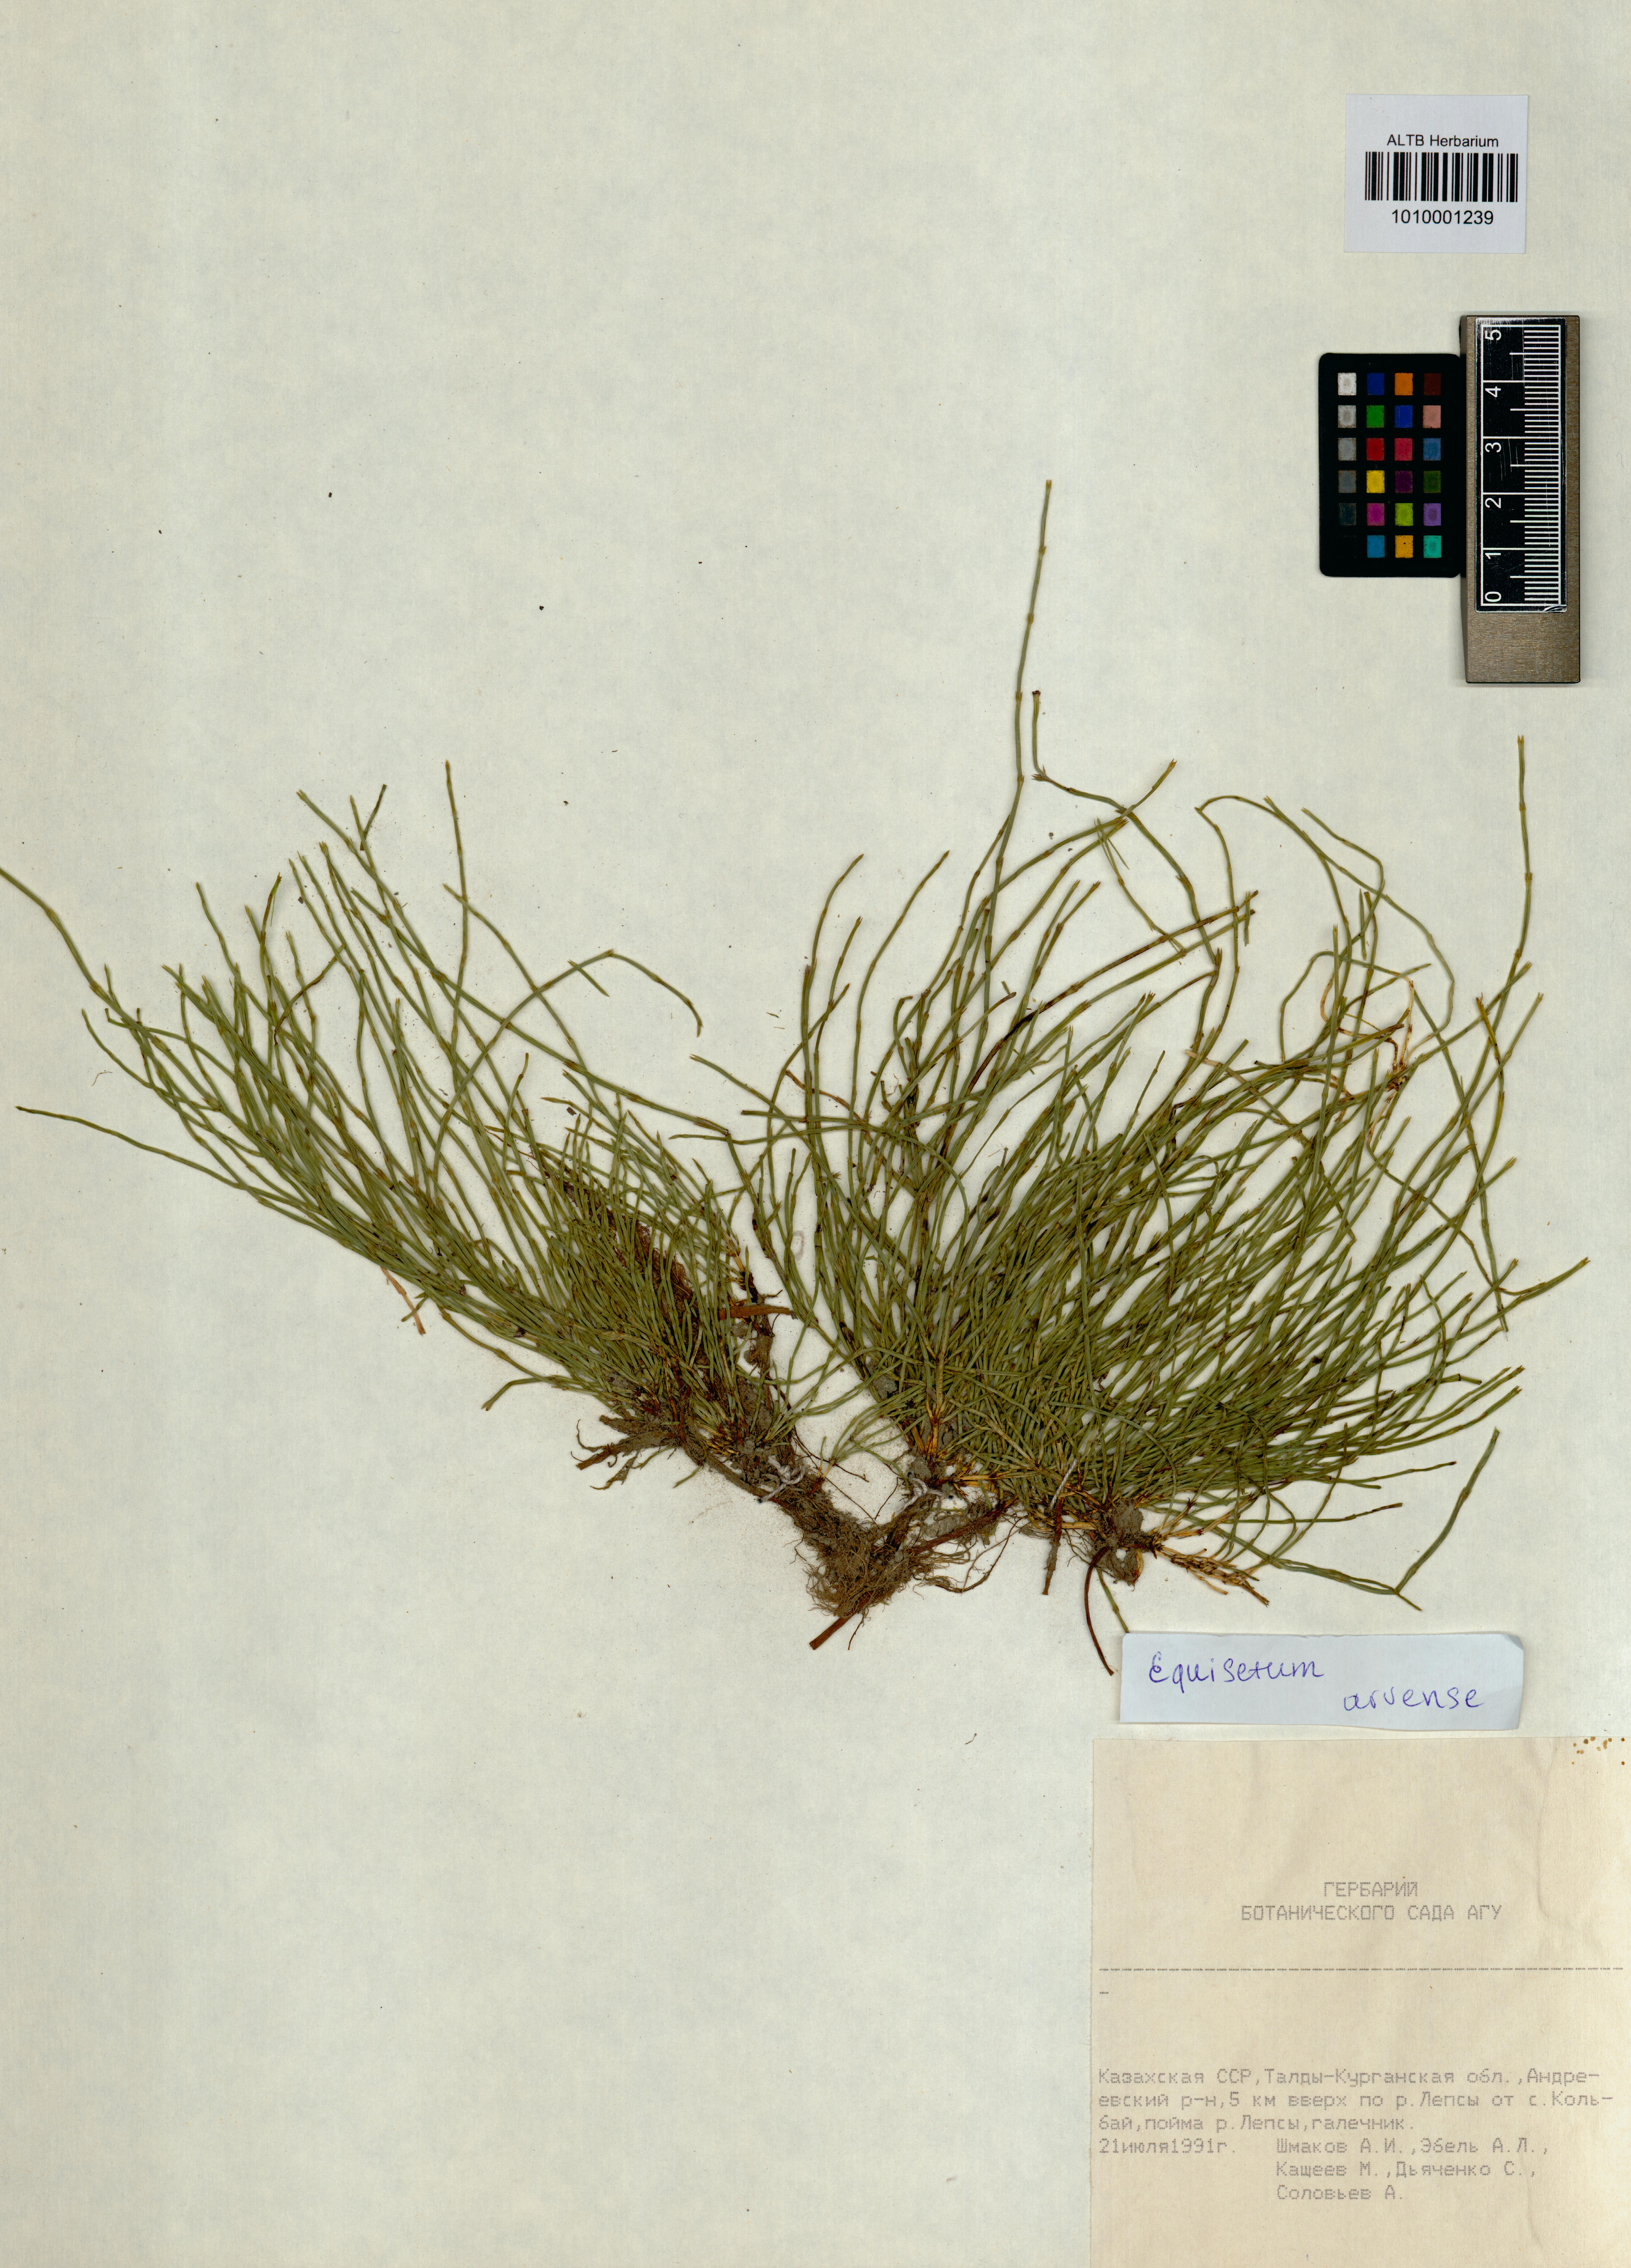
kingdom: Plantae
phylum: Tracheophyta
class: Polypodiopsida
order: Equisetales
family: Equisetaceae
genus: Equisetum
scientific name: Equisetum arvense
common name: Field horsetail
